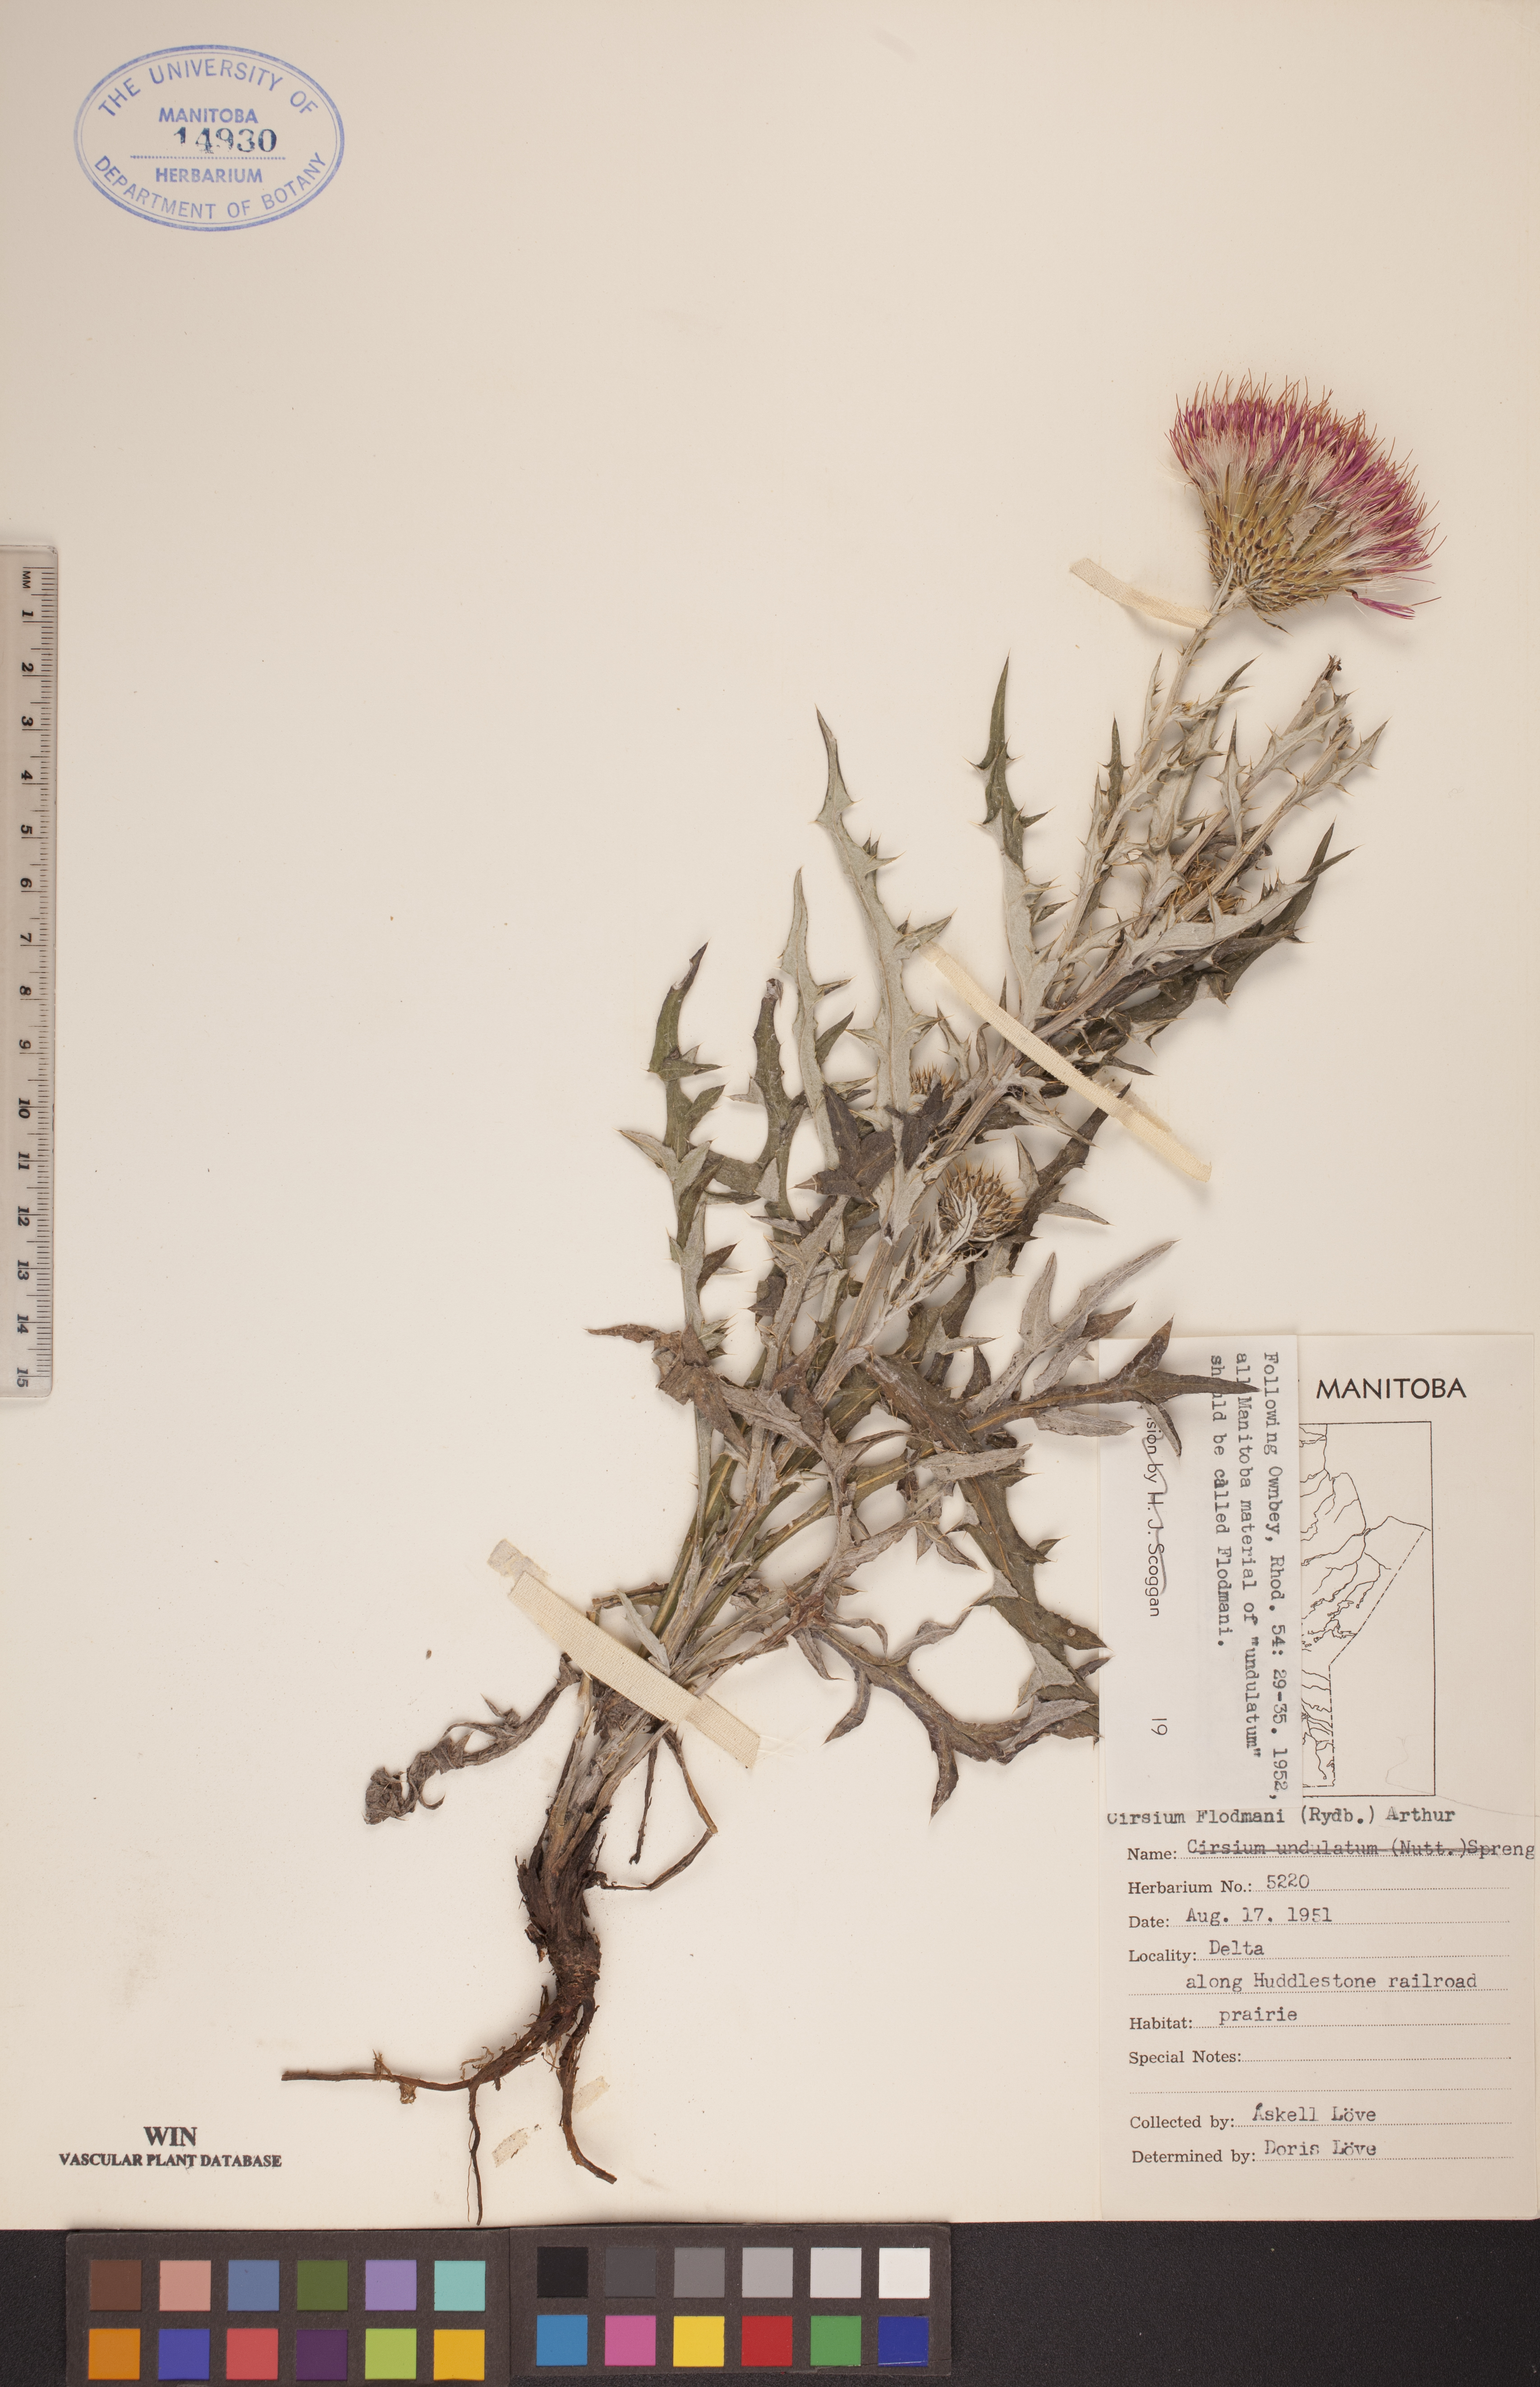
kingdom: Plantae
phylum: Tracheophyta
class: Magnoliopsida
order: Asterales
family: Asteraceae
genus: Cirsium
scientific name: Cirsium flodmanii
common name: Flodman's thistle
